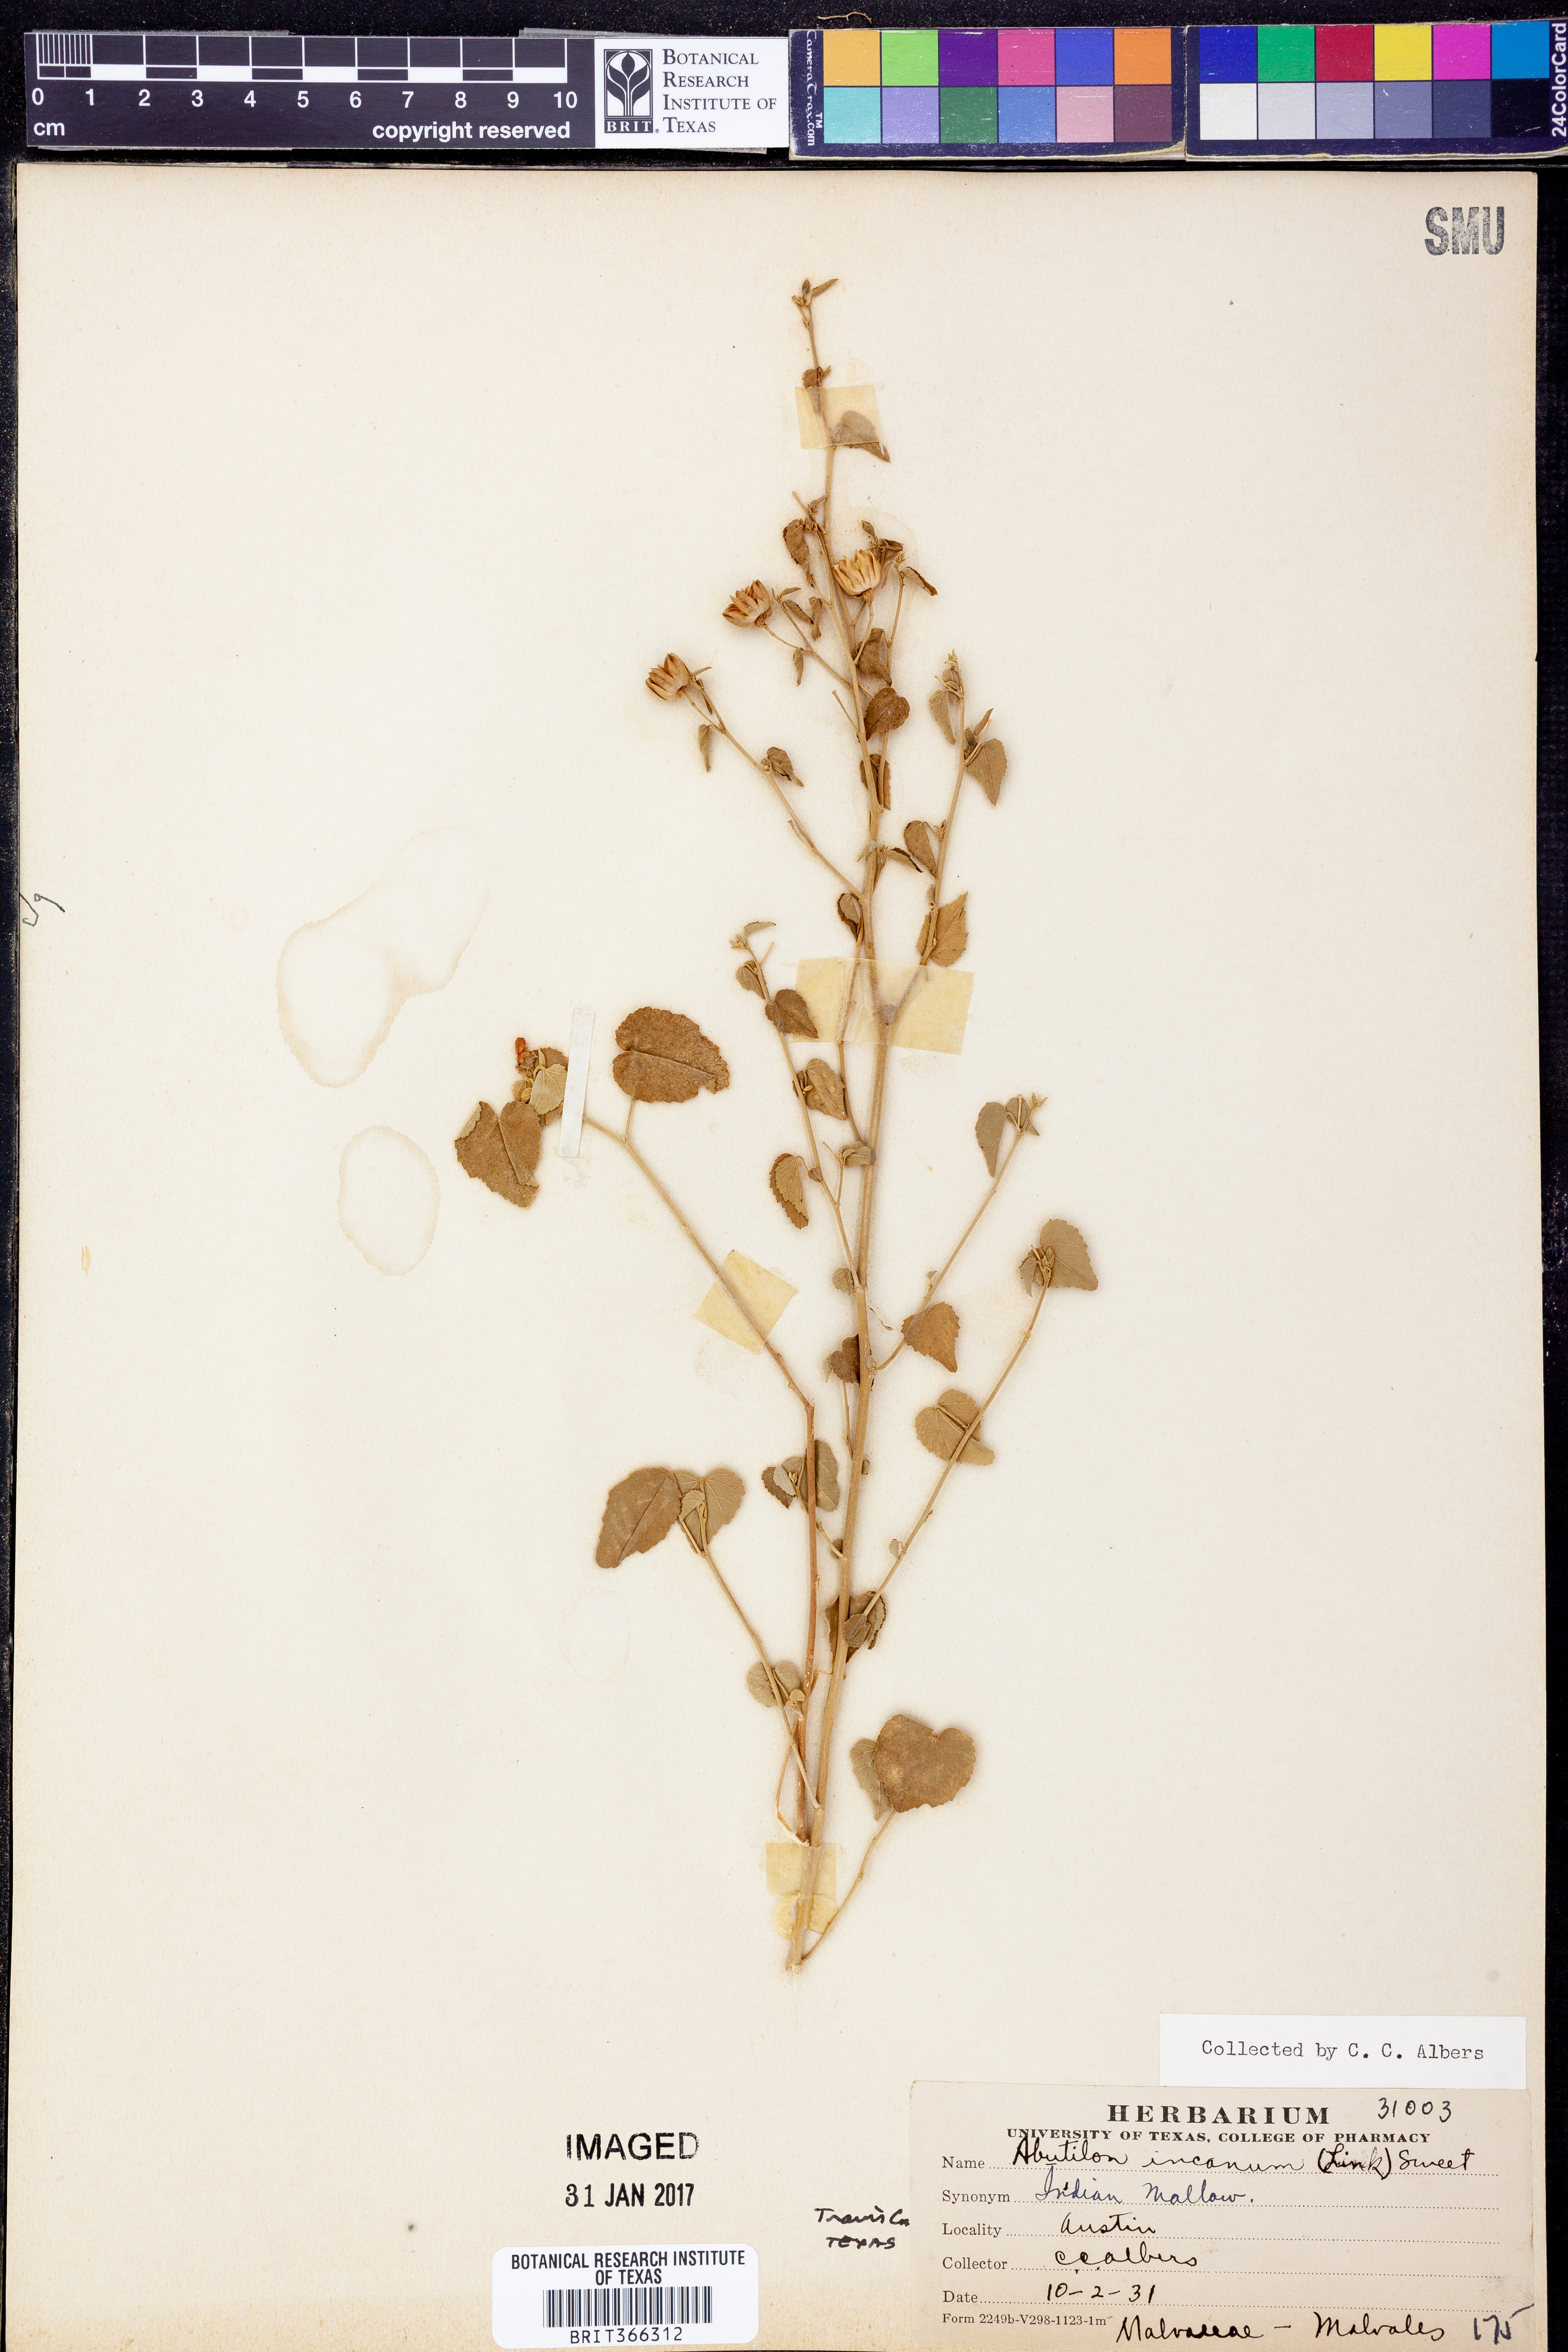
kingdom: Plantae
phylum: Tracheophyta
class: Magnoliopsida
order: Malvales
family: Malvaceae
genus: Abutilon
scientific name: Abutilon incanum
